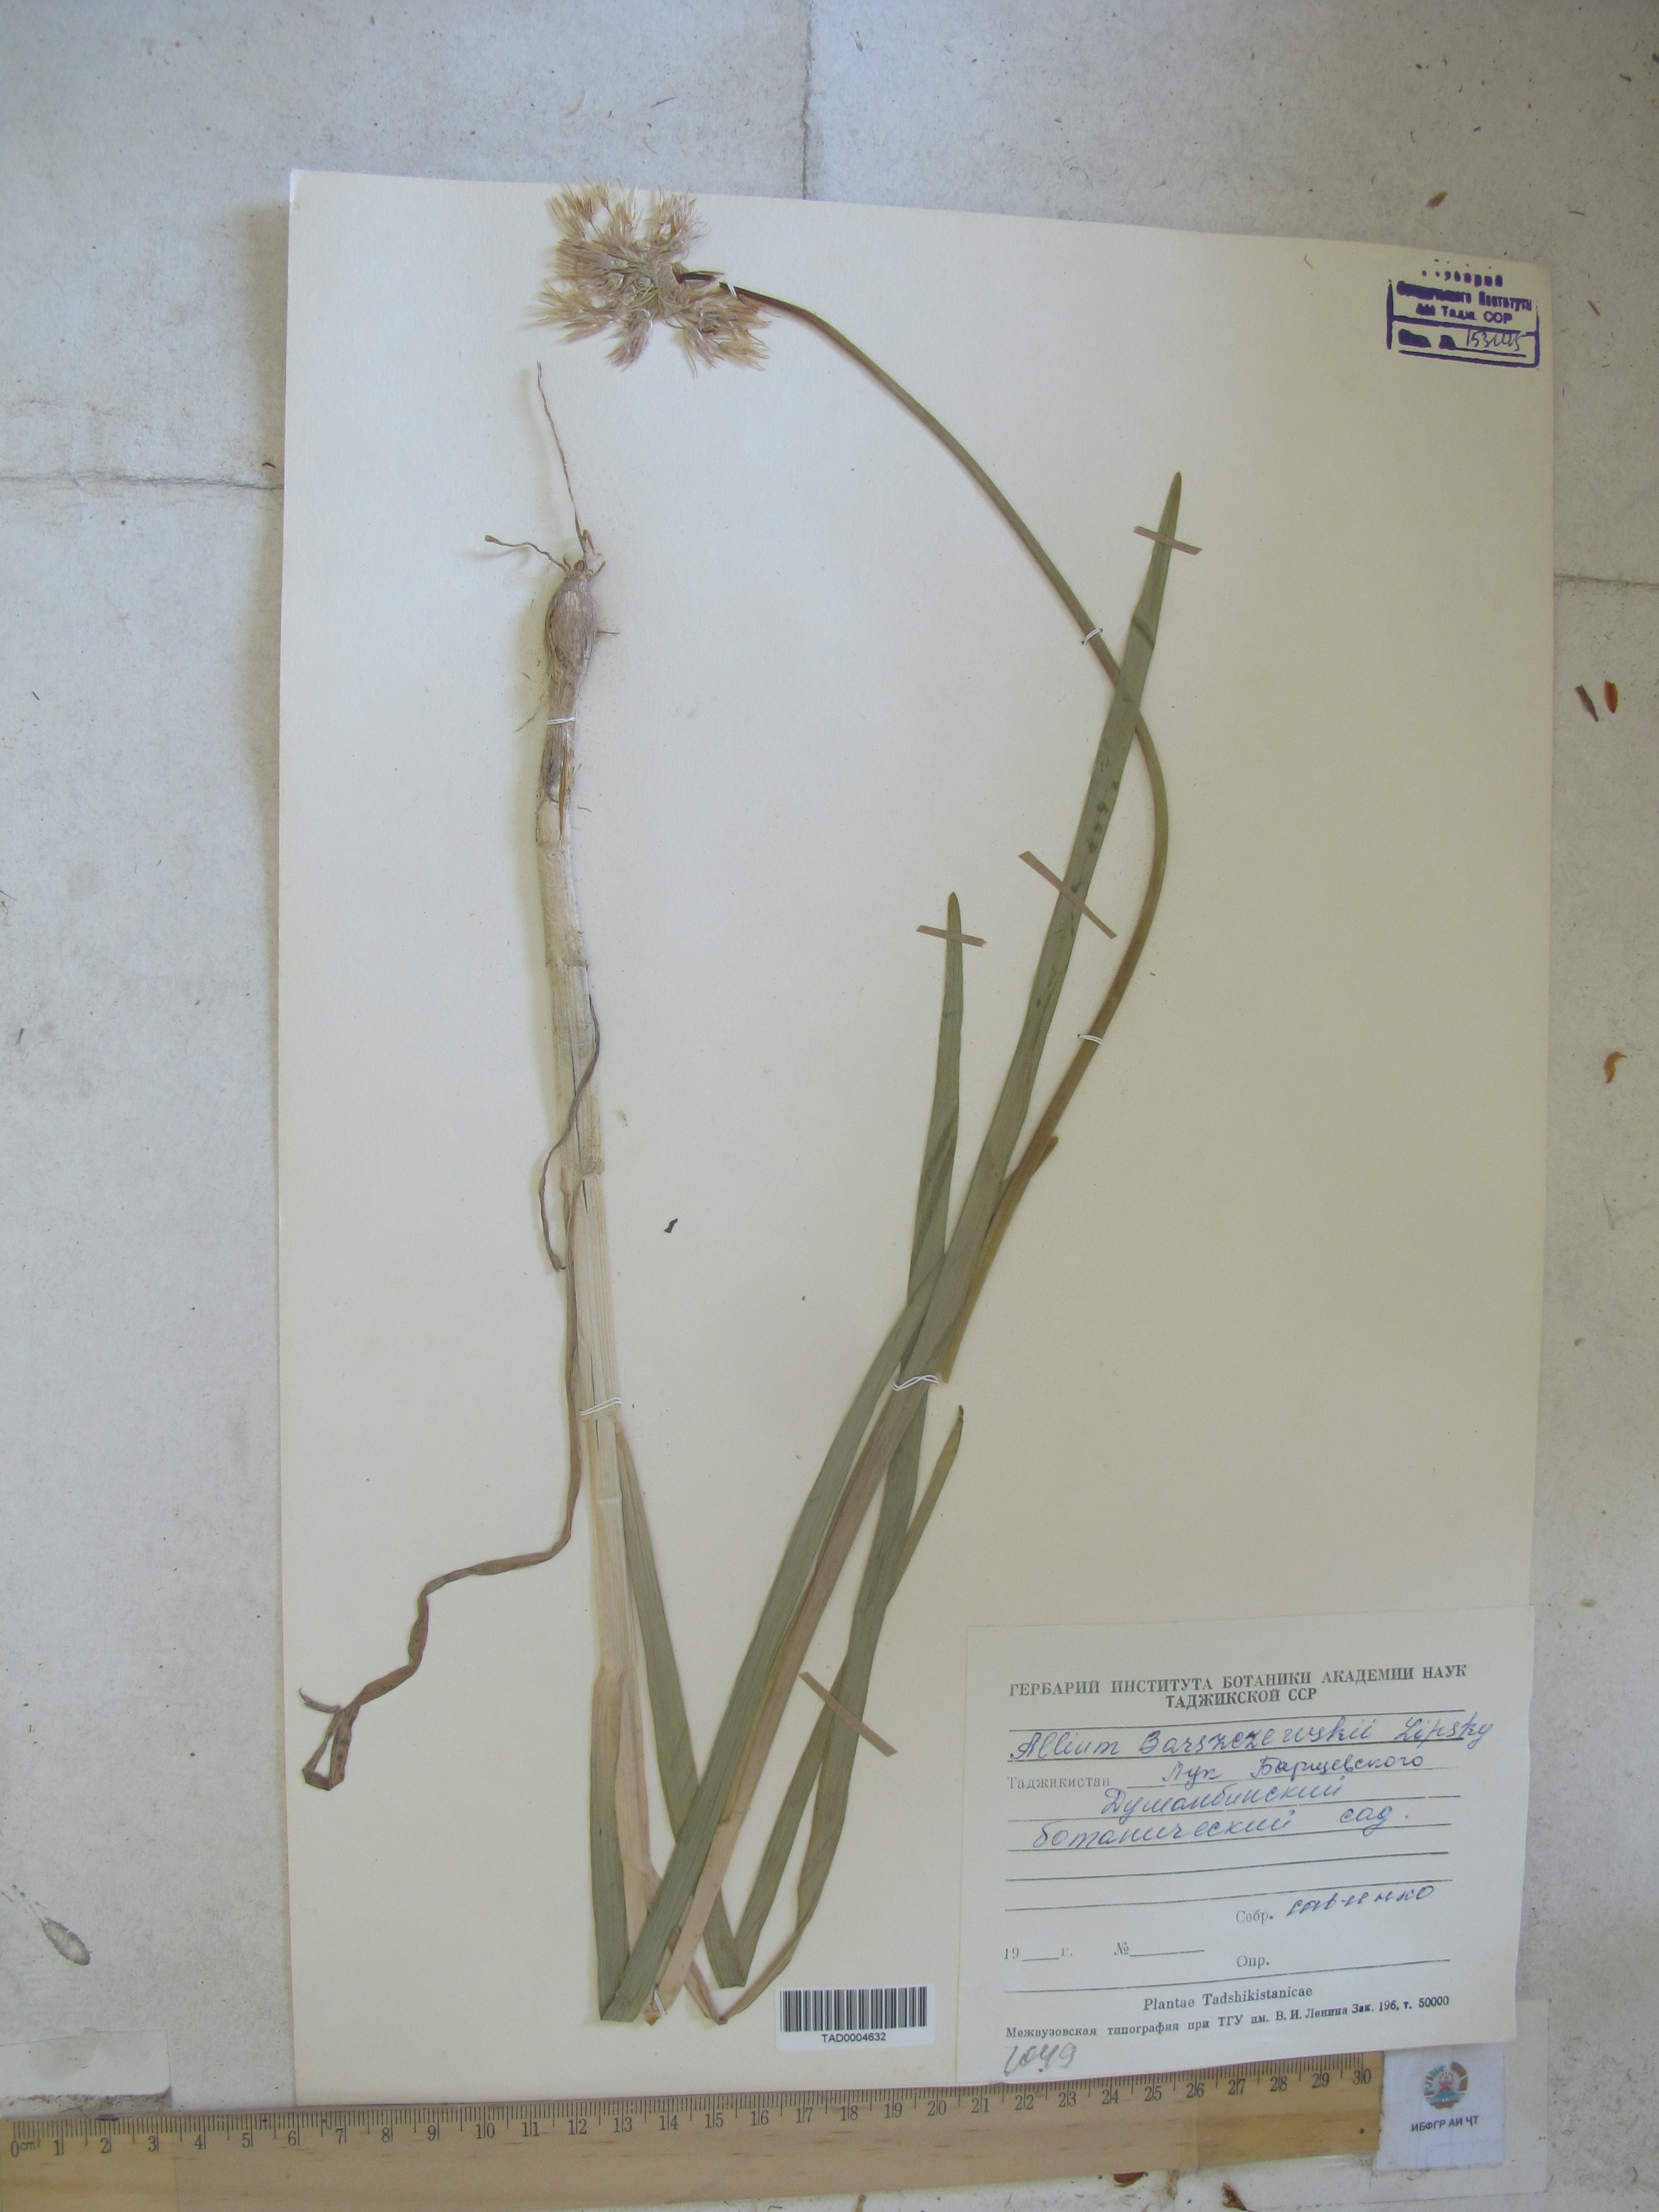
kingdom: Plantae
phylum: Tracheophyta
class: Liliopsida
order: Asparagales
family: Amaryllidaceae
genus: Allium
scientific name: Allium barsczewskii
